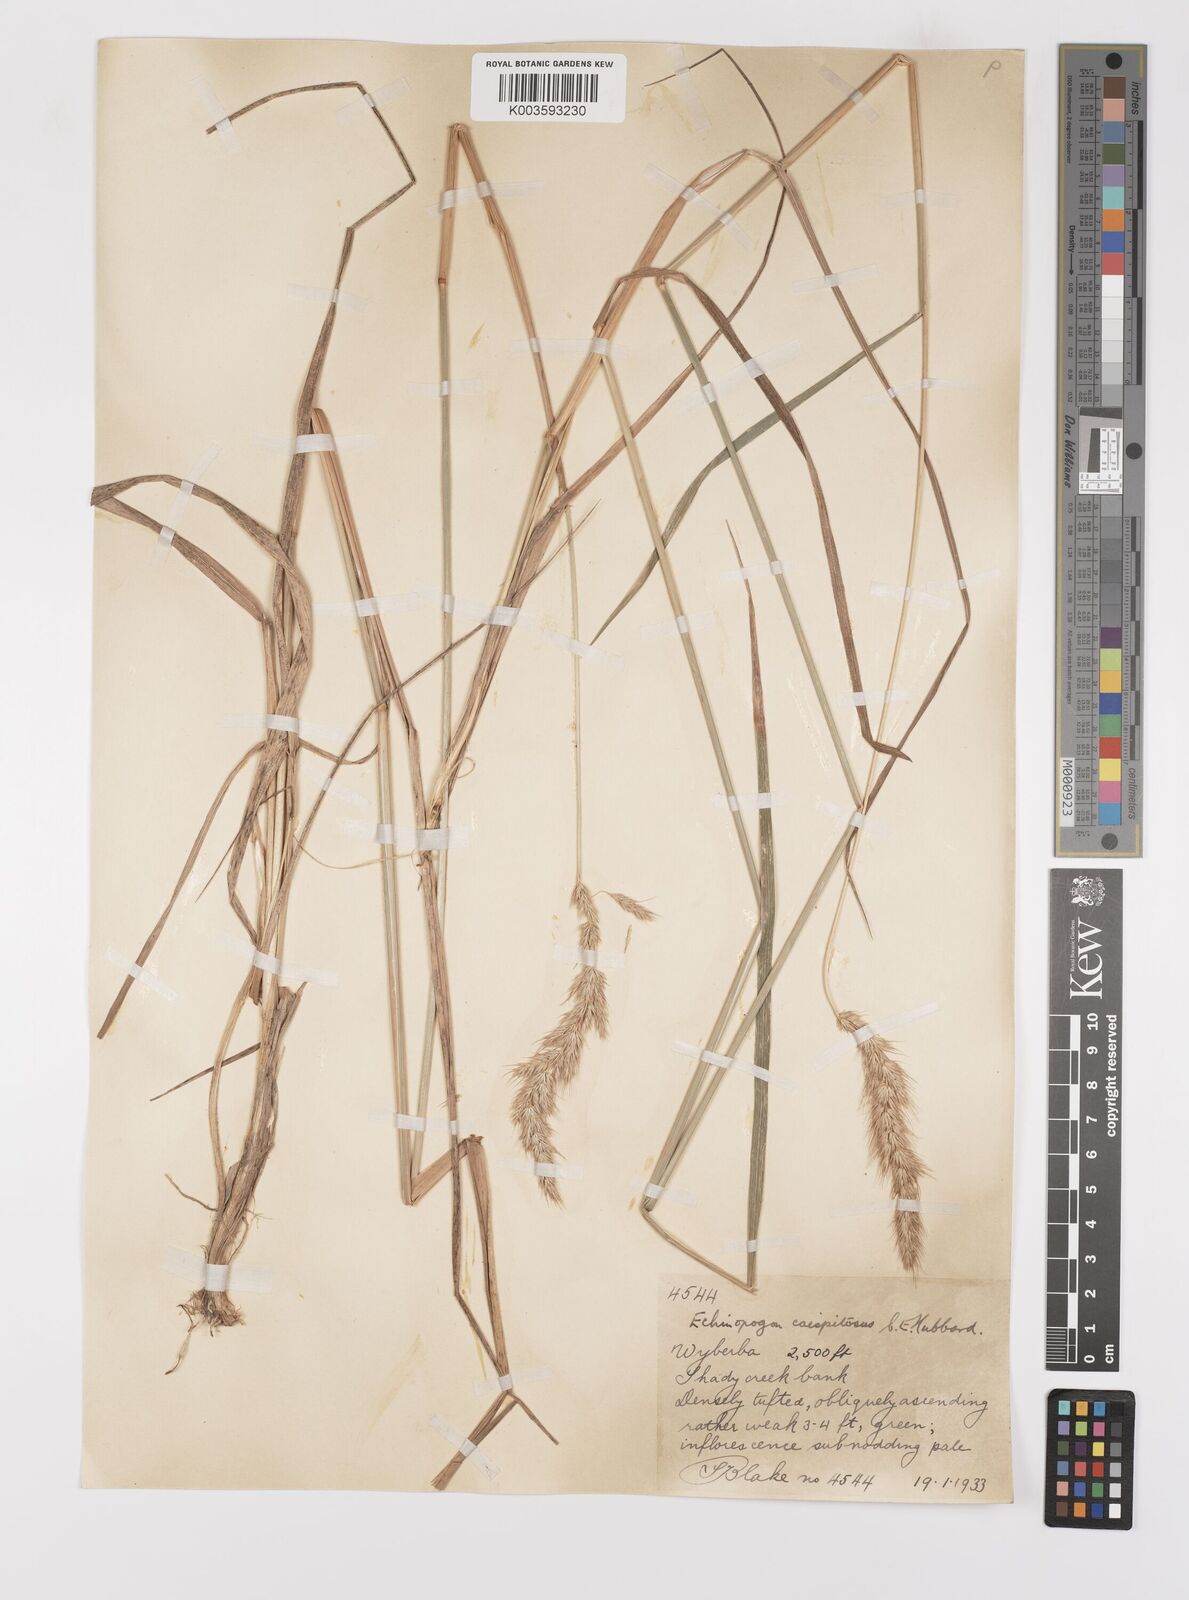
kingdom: Plantae
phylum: Tracheophyta
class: Liliopsida
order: Poales
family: Poaceae
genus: Echinopogon
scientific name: Echinopogon caespitosus
